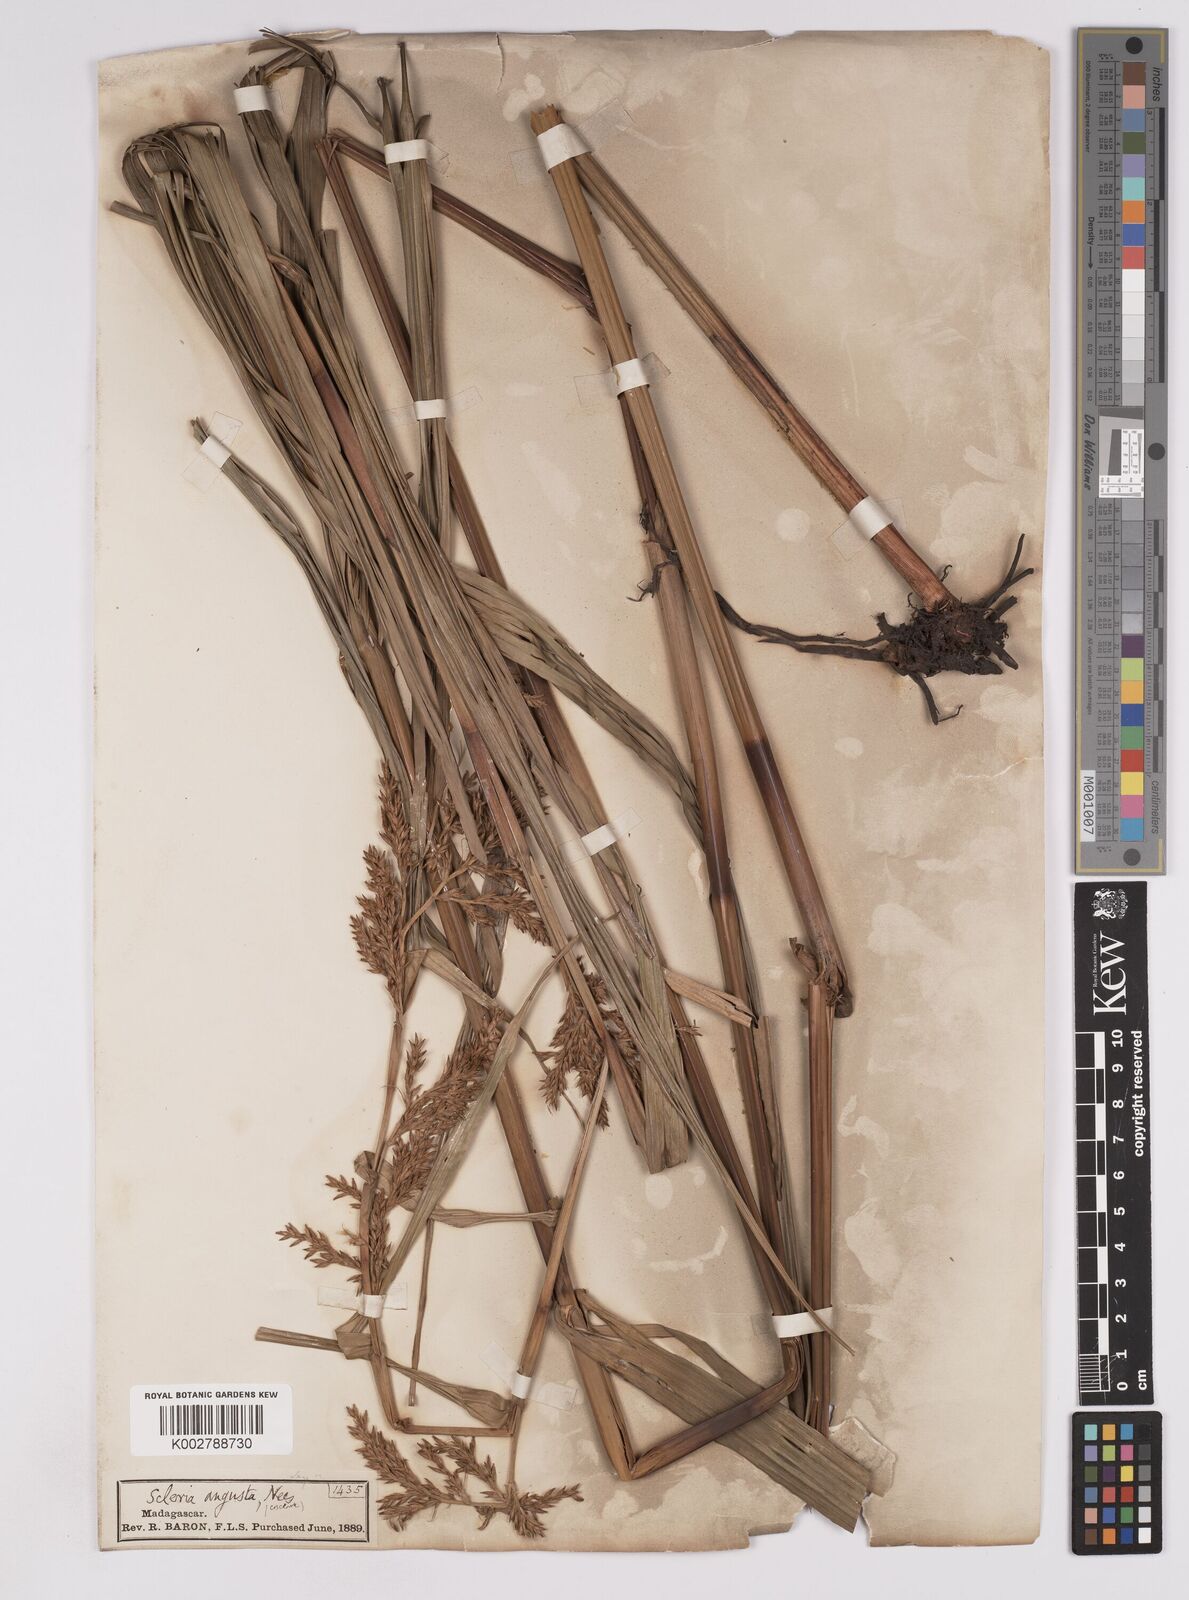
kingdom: Plantae
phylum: Tracheophyta
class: Liliopsida
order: Poales
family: Cyperaceae
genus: Scleria
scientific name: Scleria angusta
